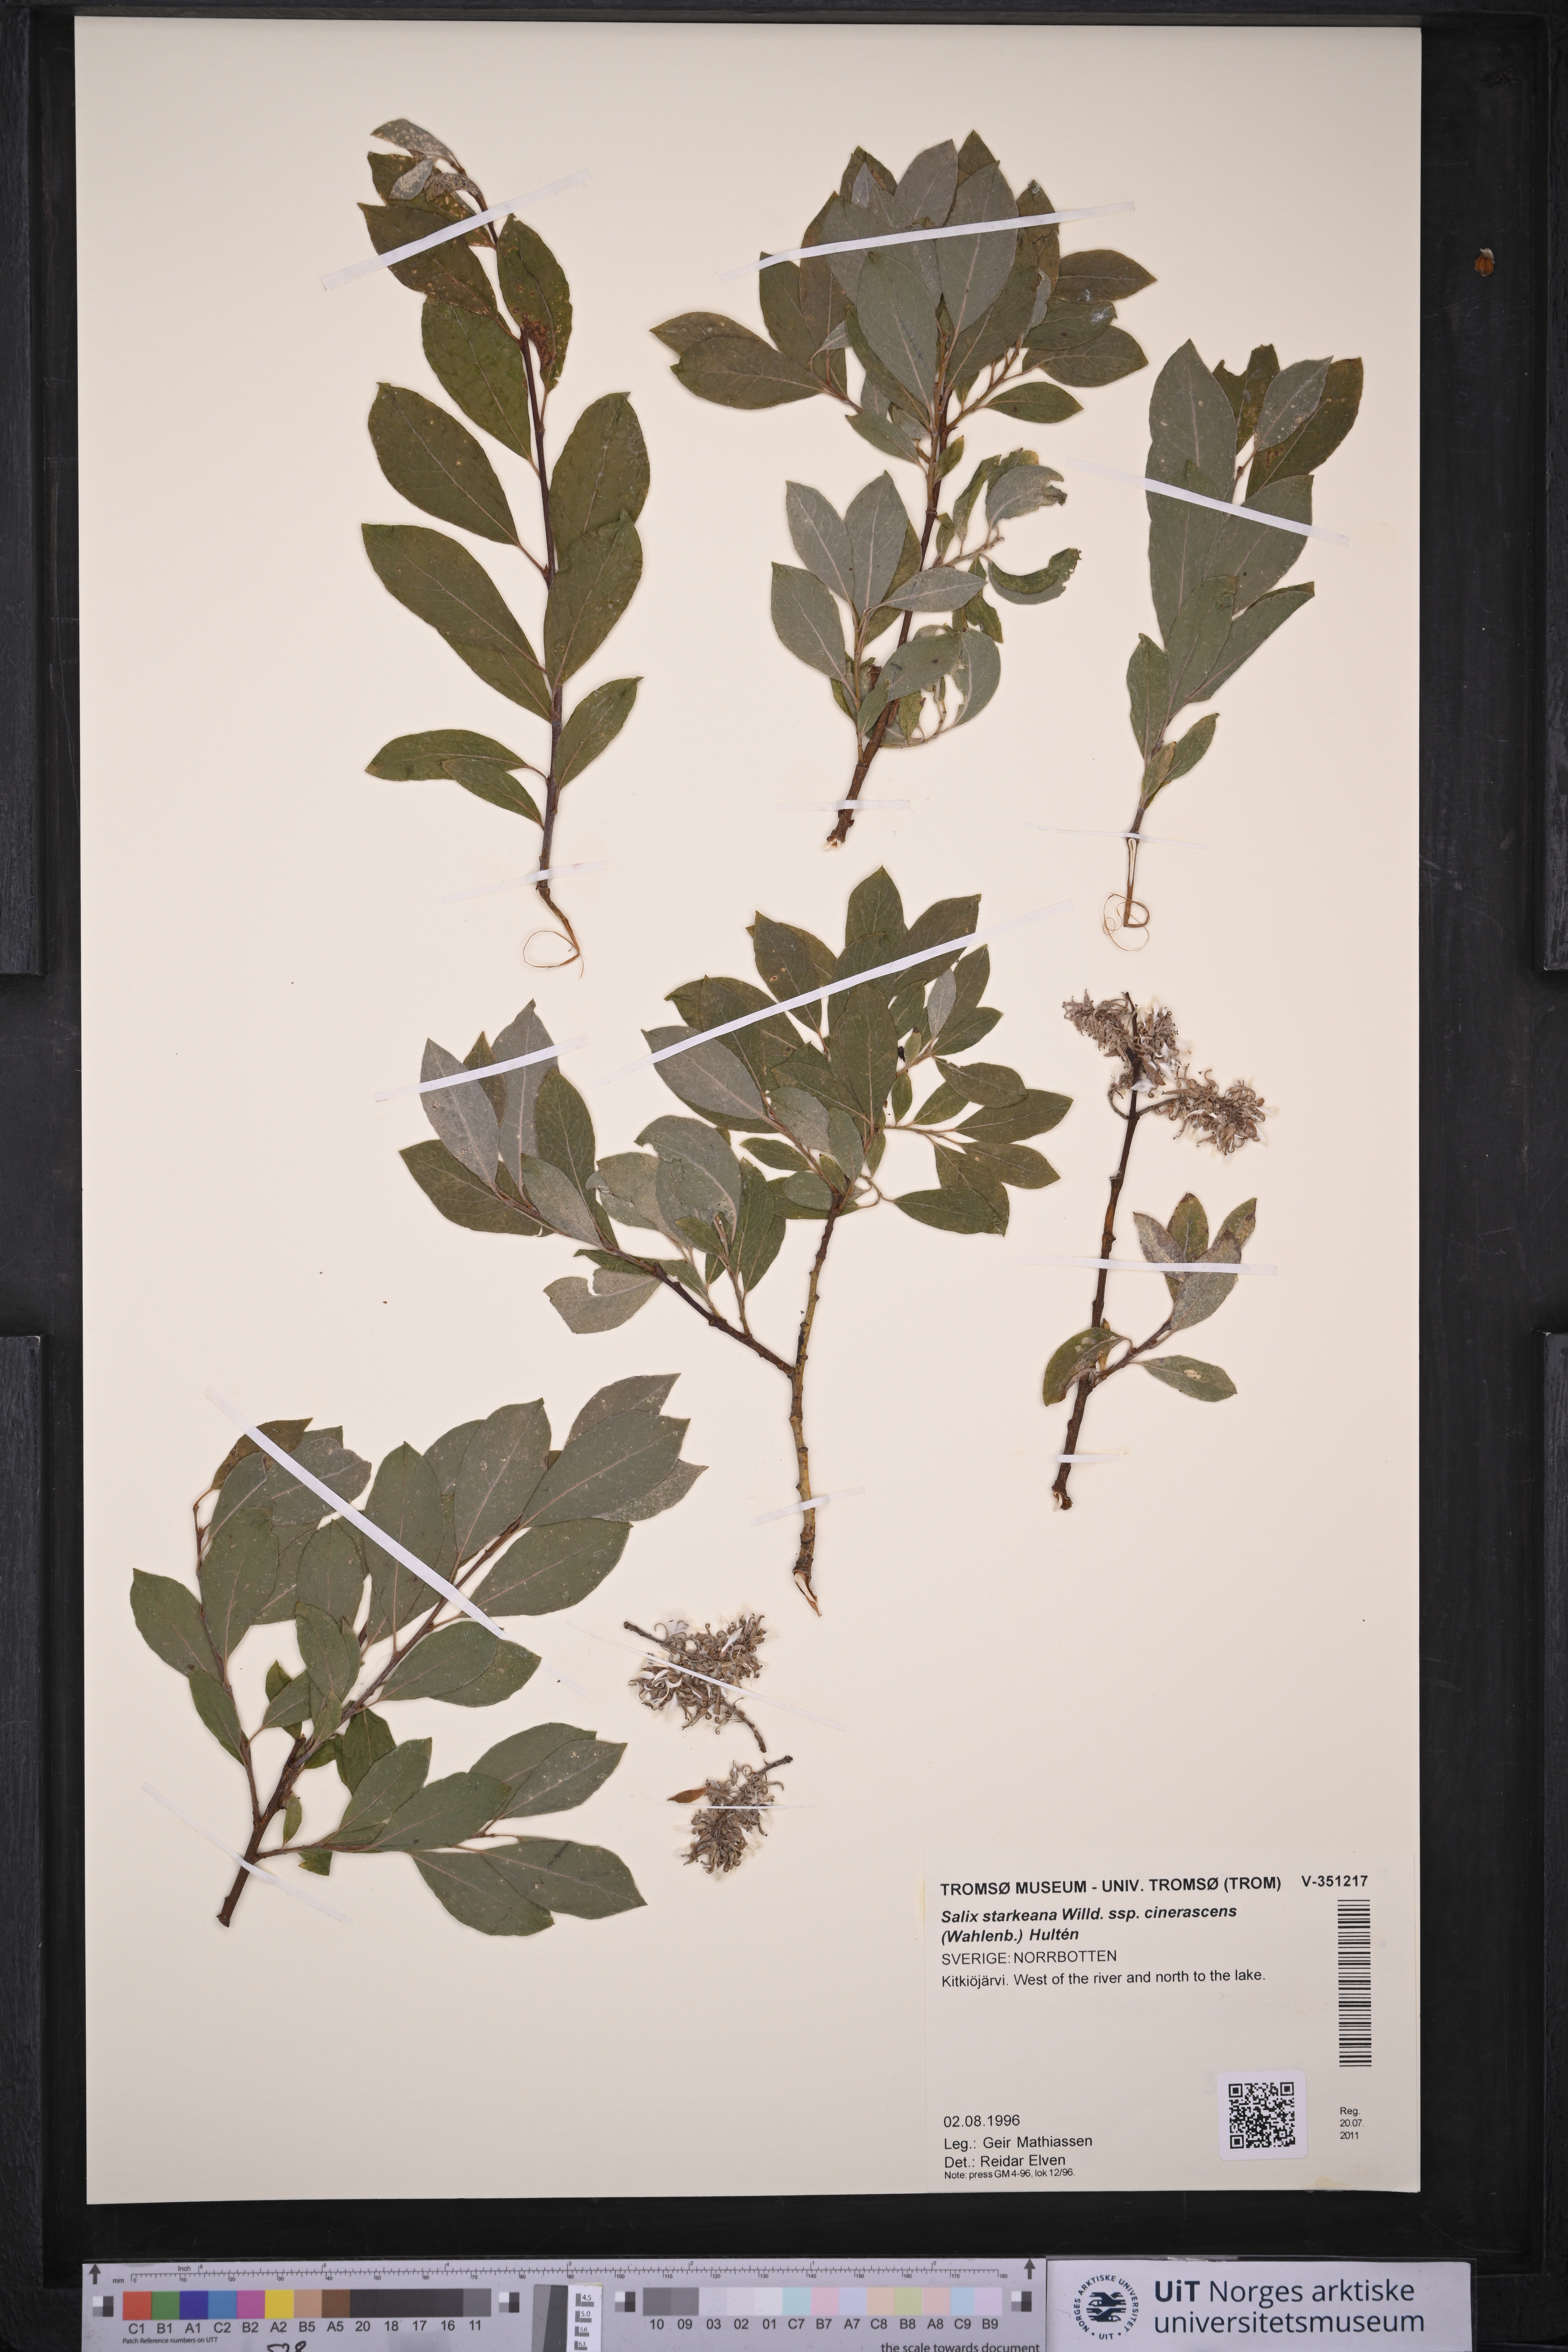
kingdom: Plantae
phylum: Tracheophyta
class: Magnoliopsida
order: Malpighiales
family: Salicaceae
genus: Salix
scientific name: Salix bebbiana
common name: Bebb's willow
